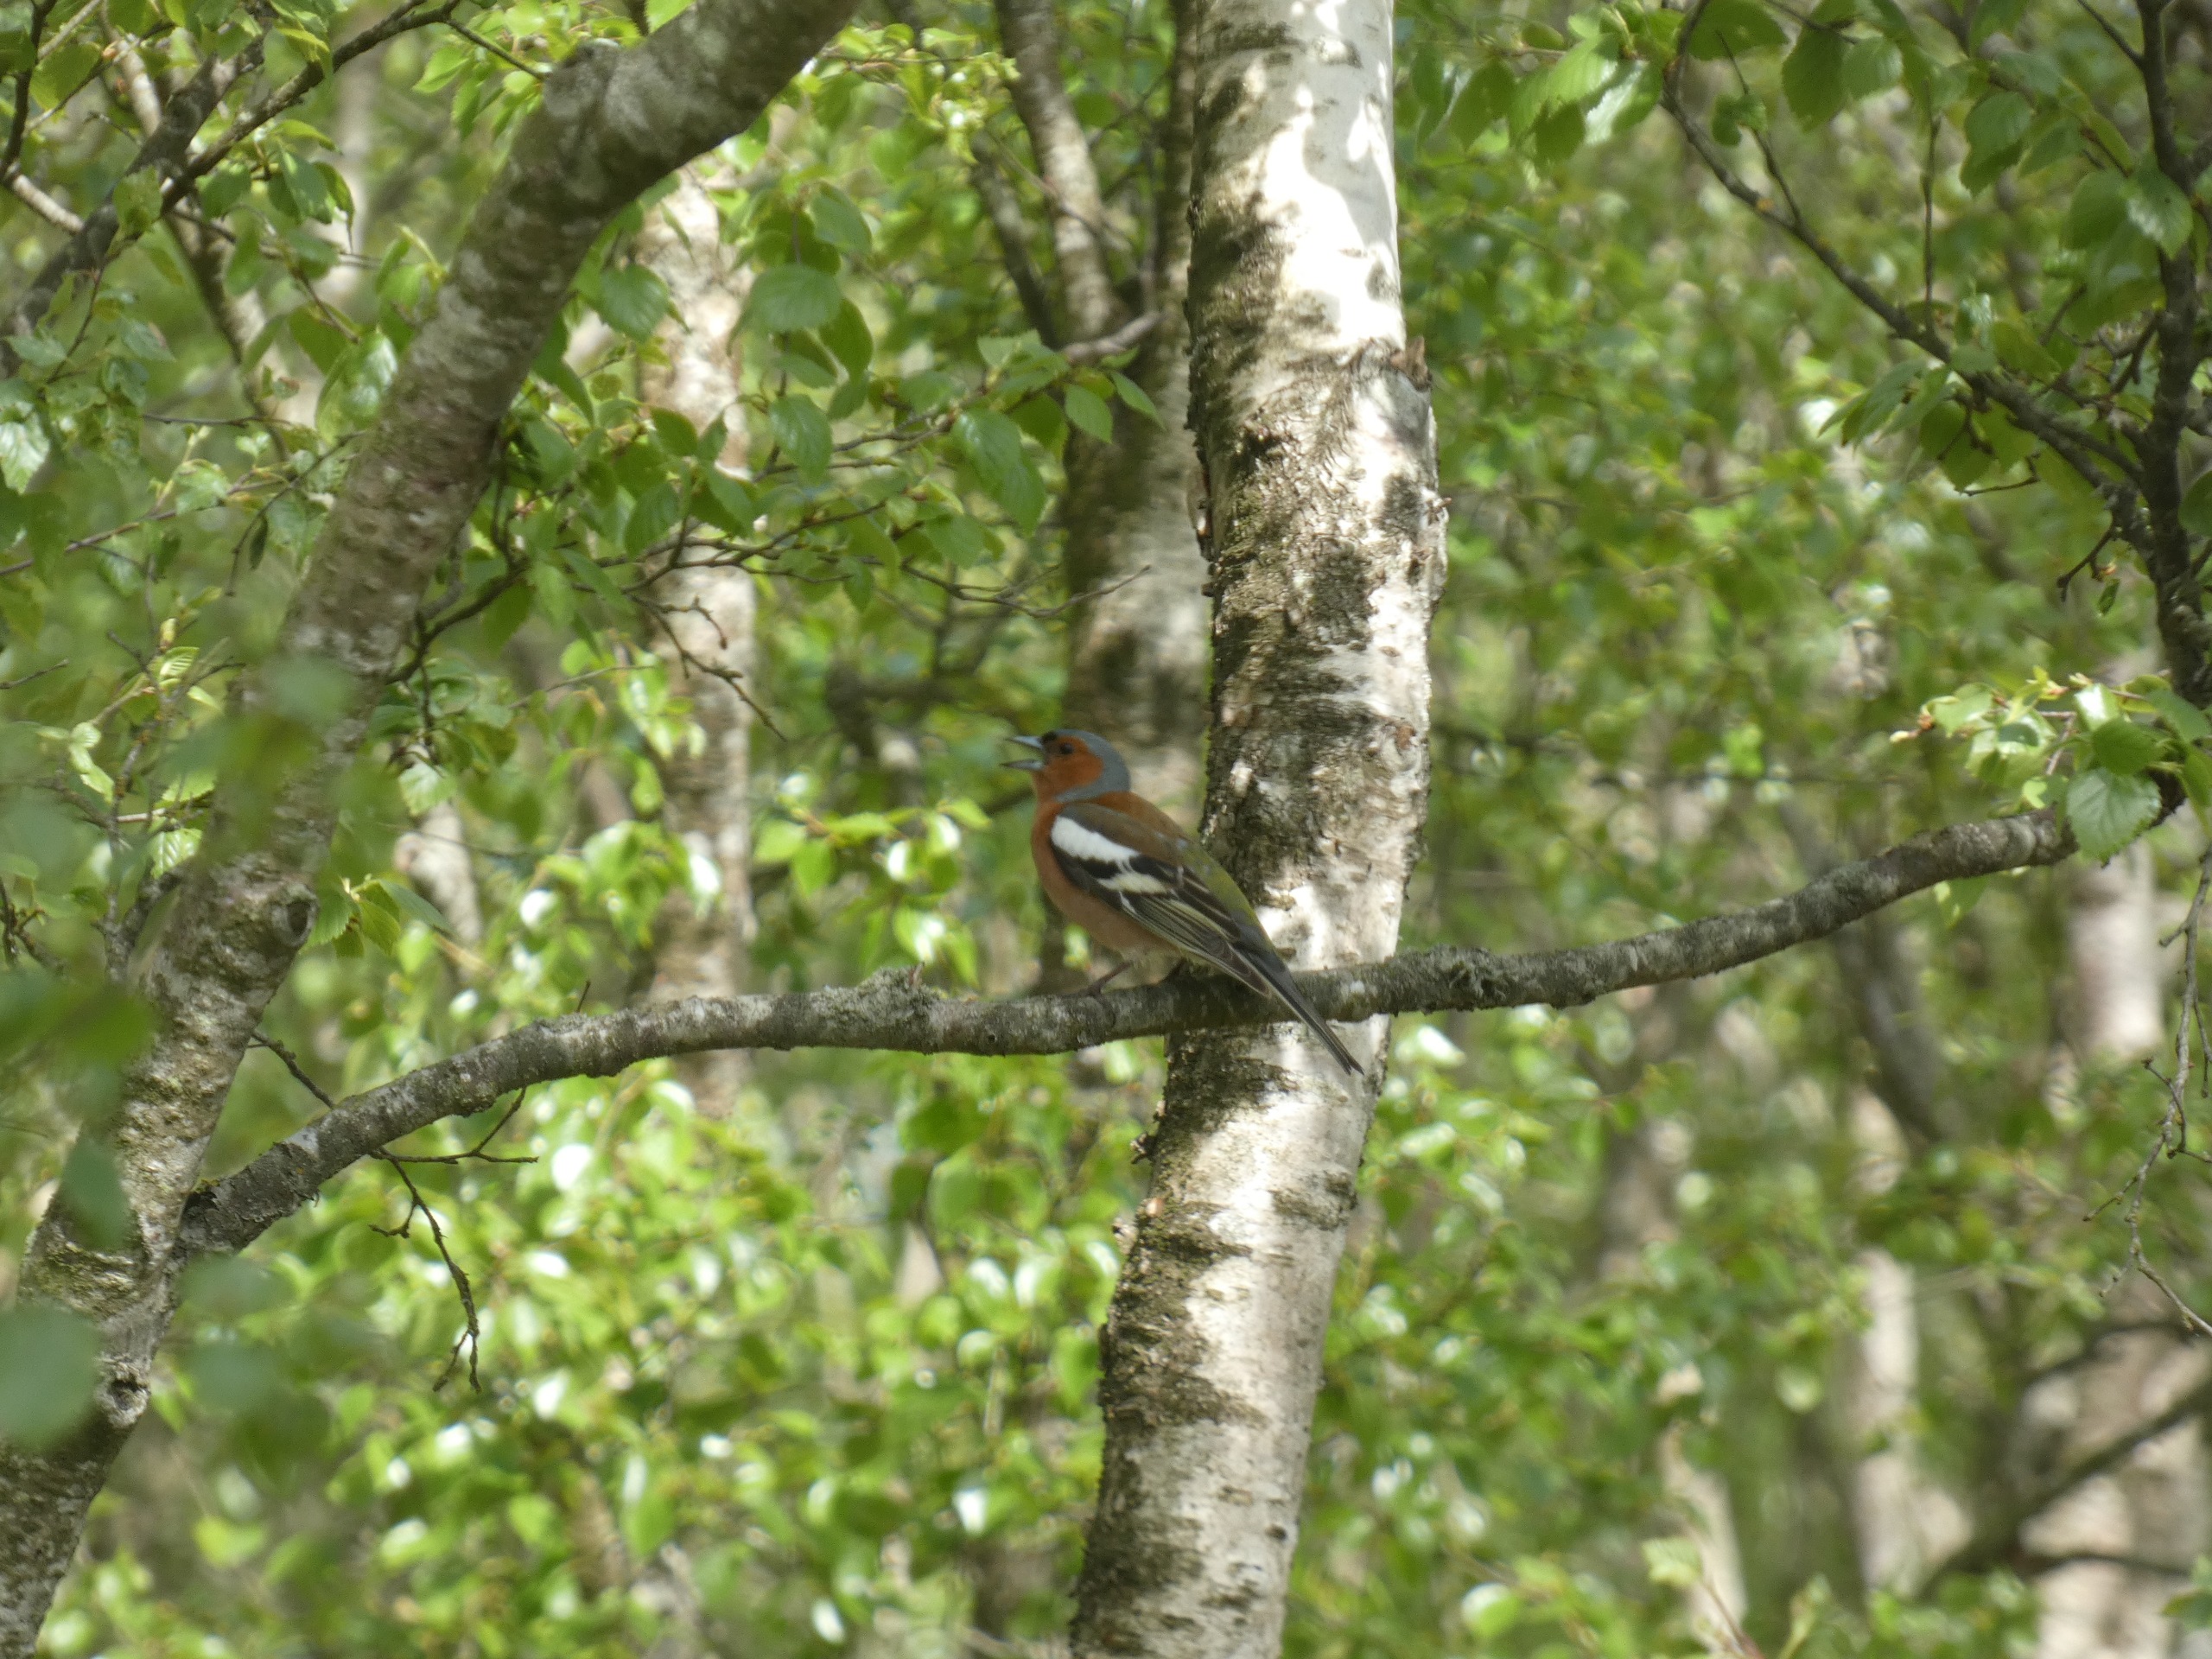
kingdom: Animalia
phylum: Chordata
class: Aves
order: Passeriformes
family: Fringillidae
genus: Fringilla
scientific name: Fringilla coelebs
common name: Bogfinke
